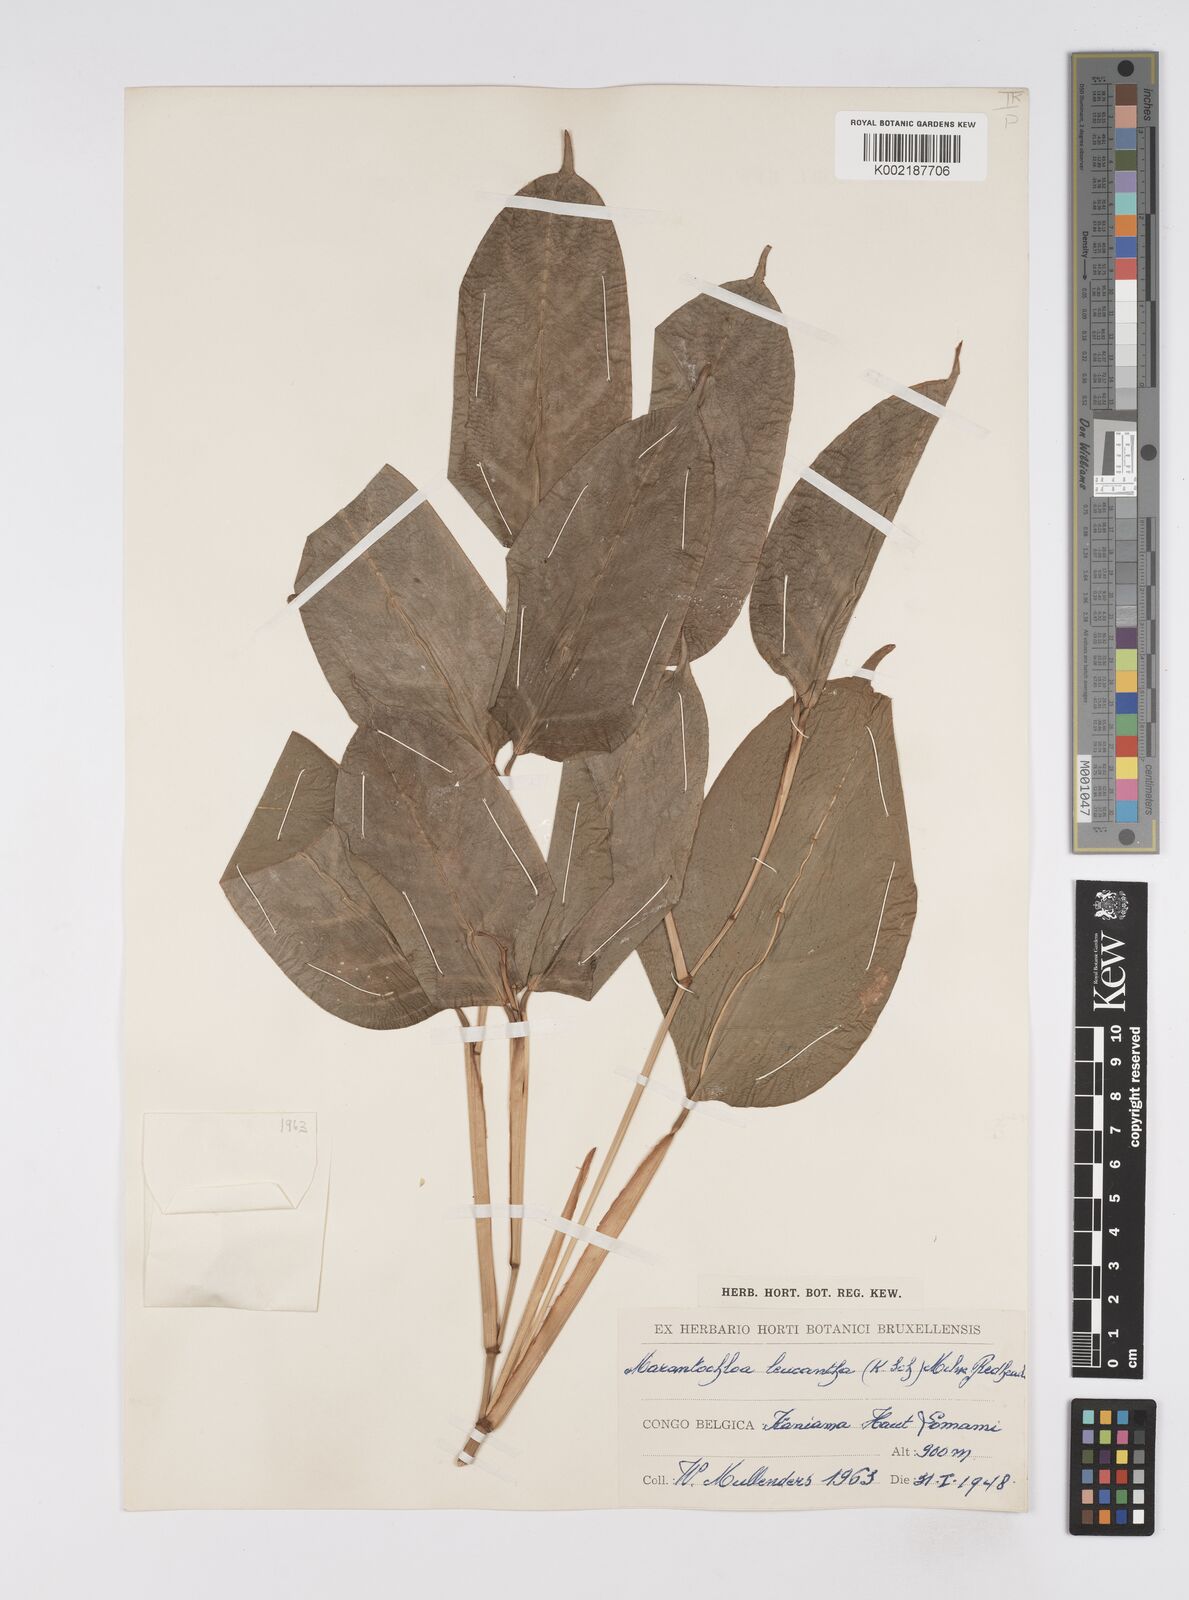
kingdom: Plantae
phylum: Tracheophyta
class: Liliopsida
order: Zingiberales
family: Marantaceae
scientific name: Marantaceae
